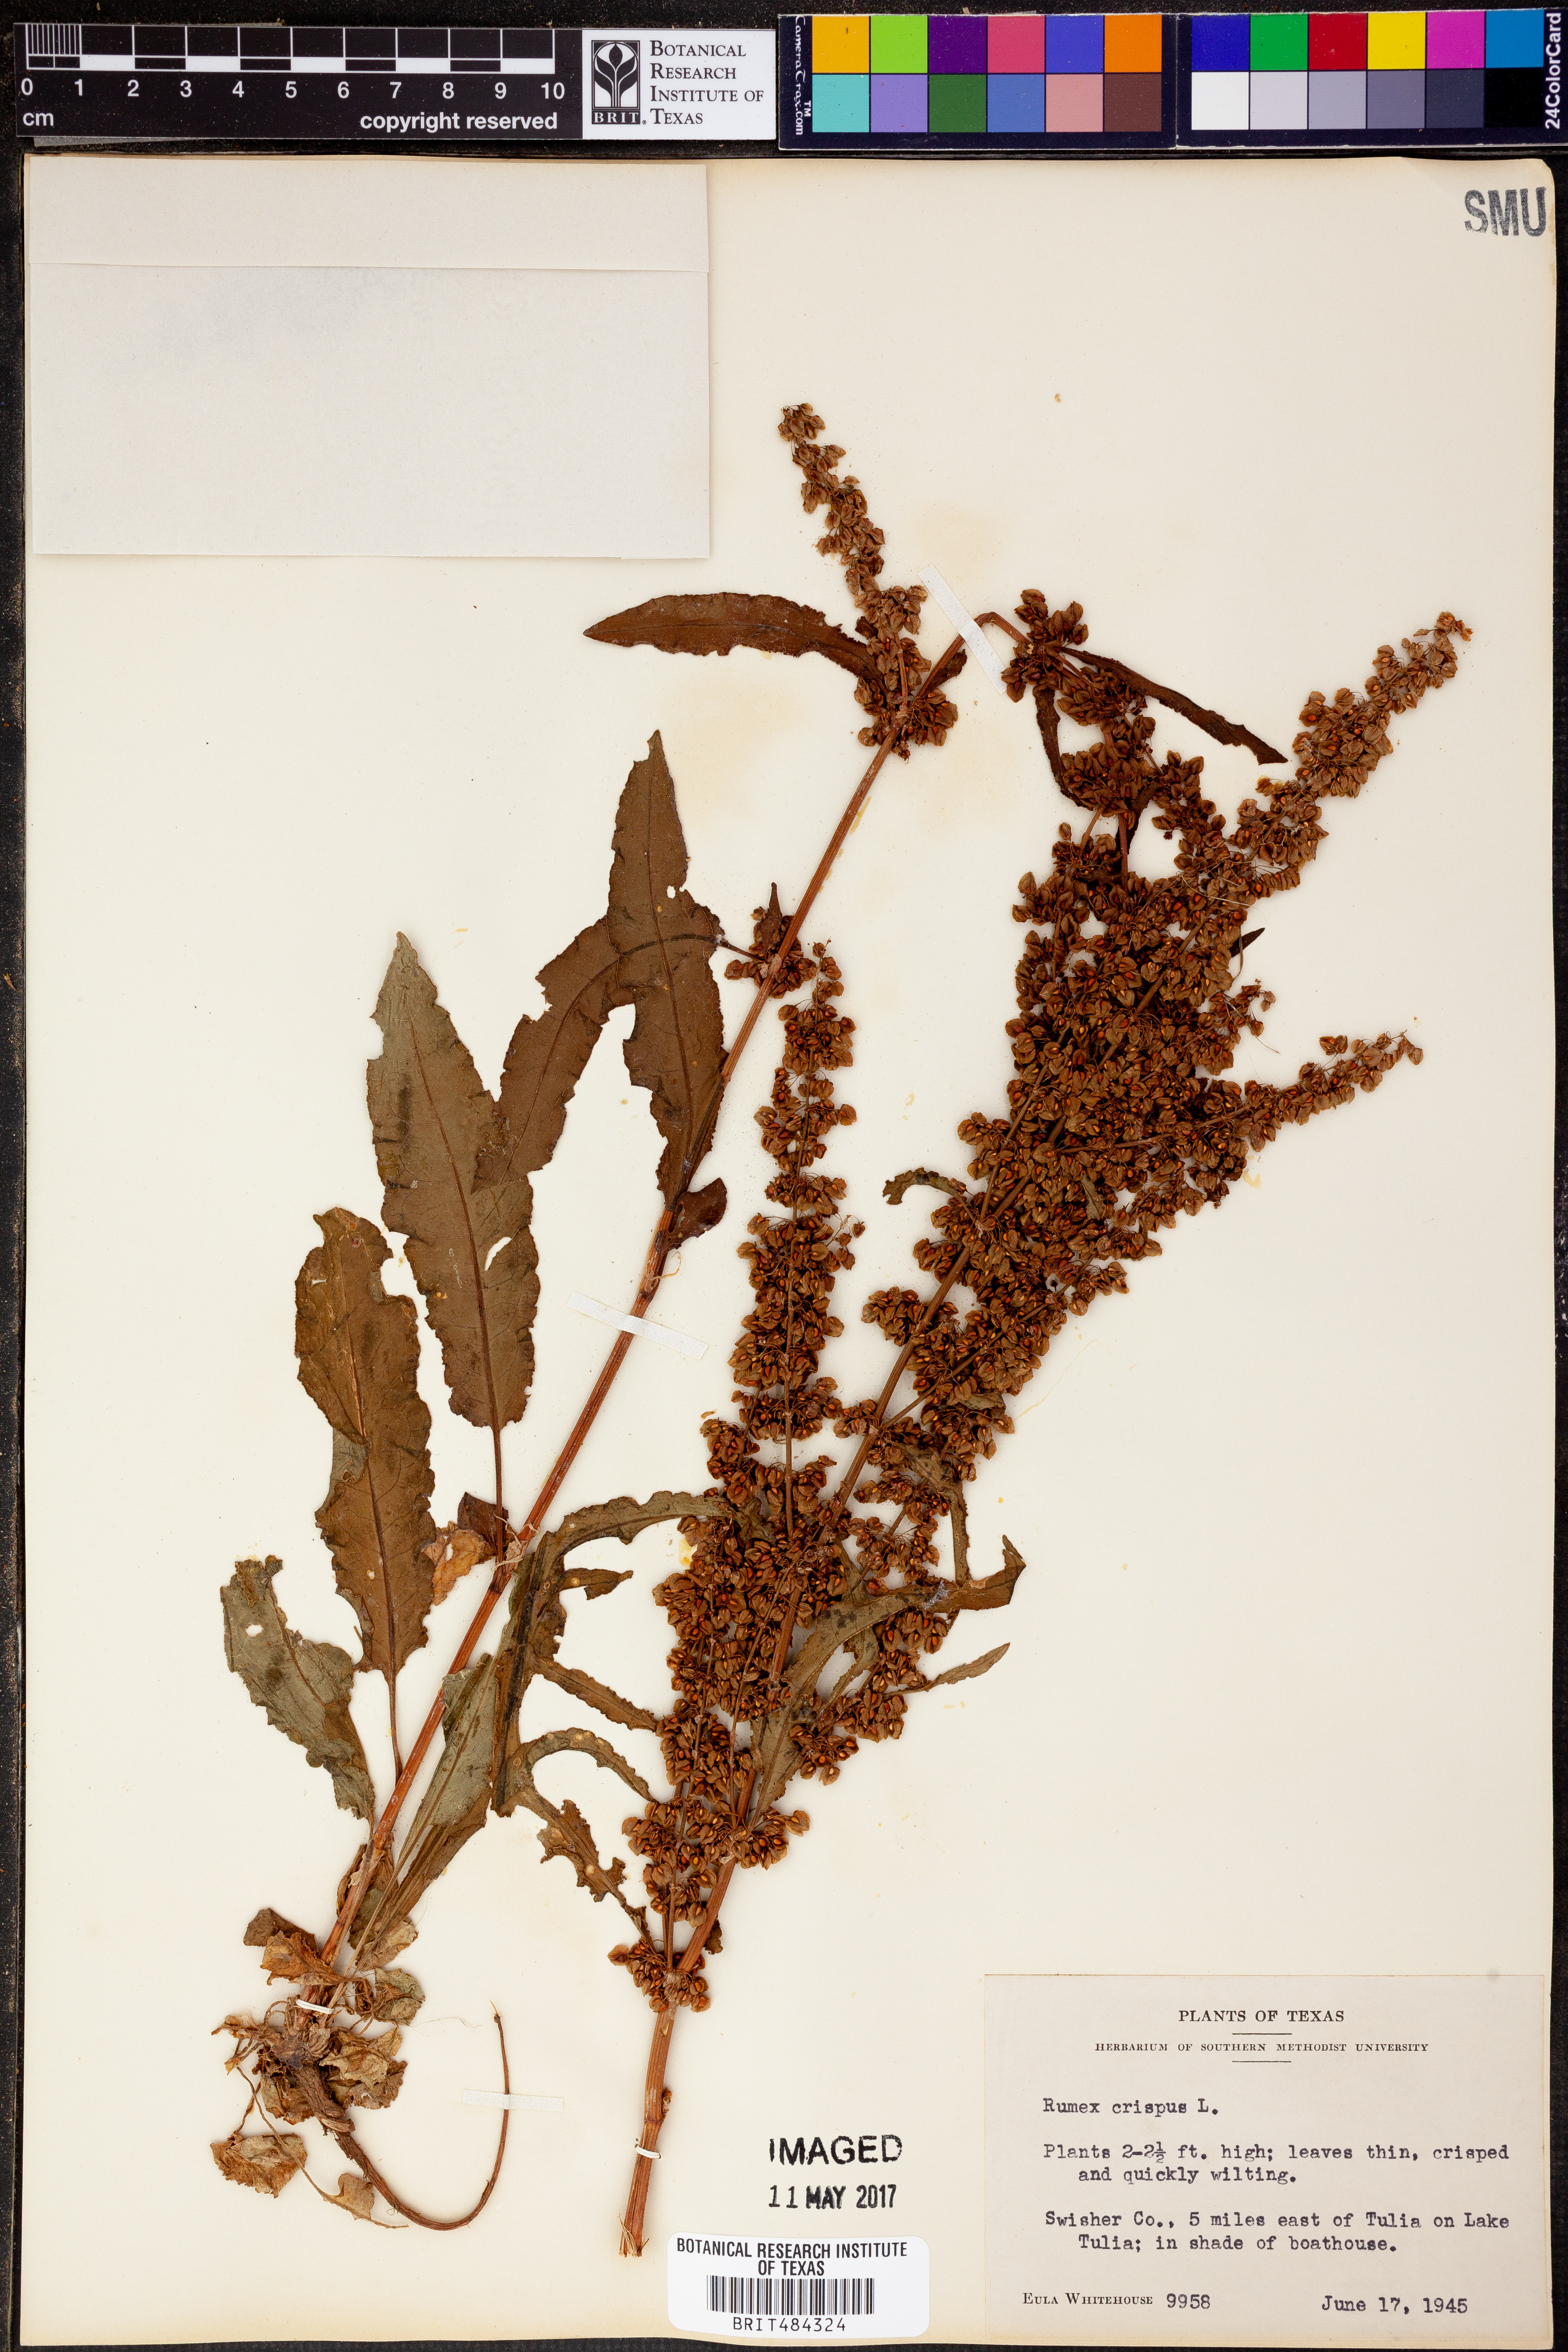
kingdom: Plantae
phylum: Tracheophyta
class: Magnoliopsida
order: Caryophyllales
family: Polygonaceae
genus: Rumex
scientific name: Rumex crispus
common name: Curled dock
